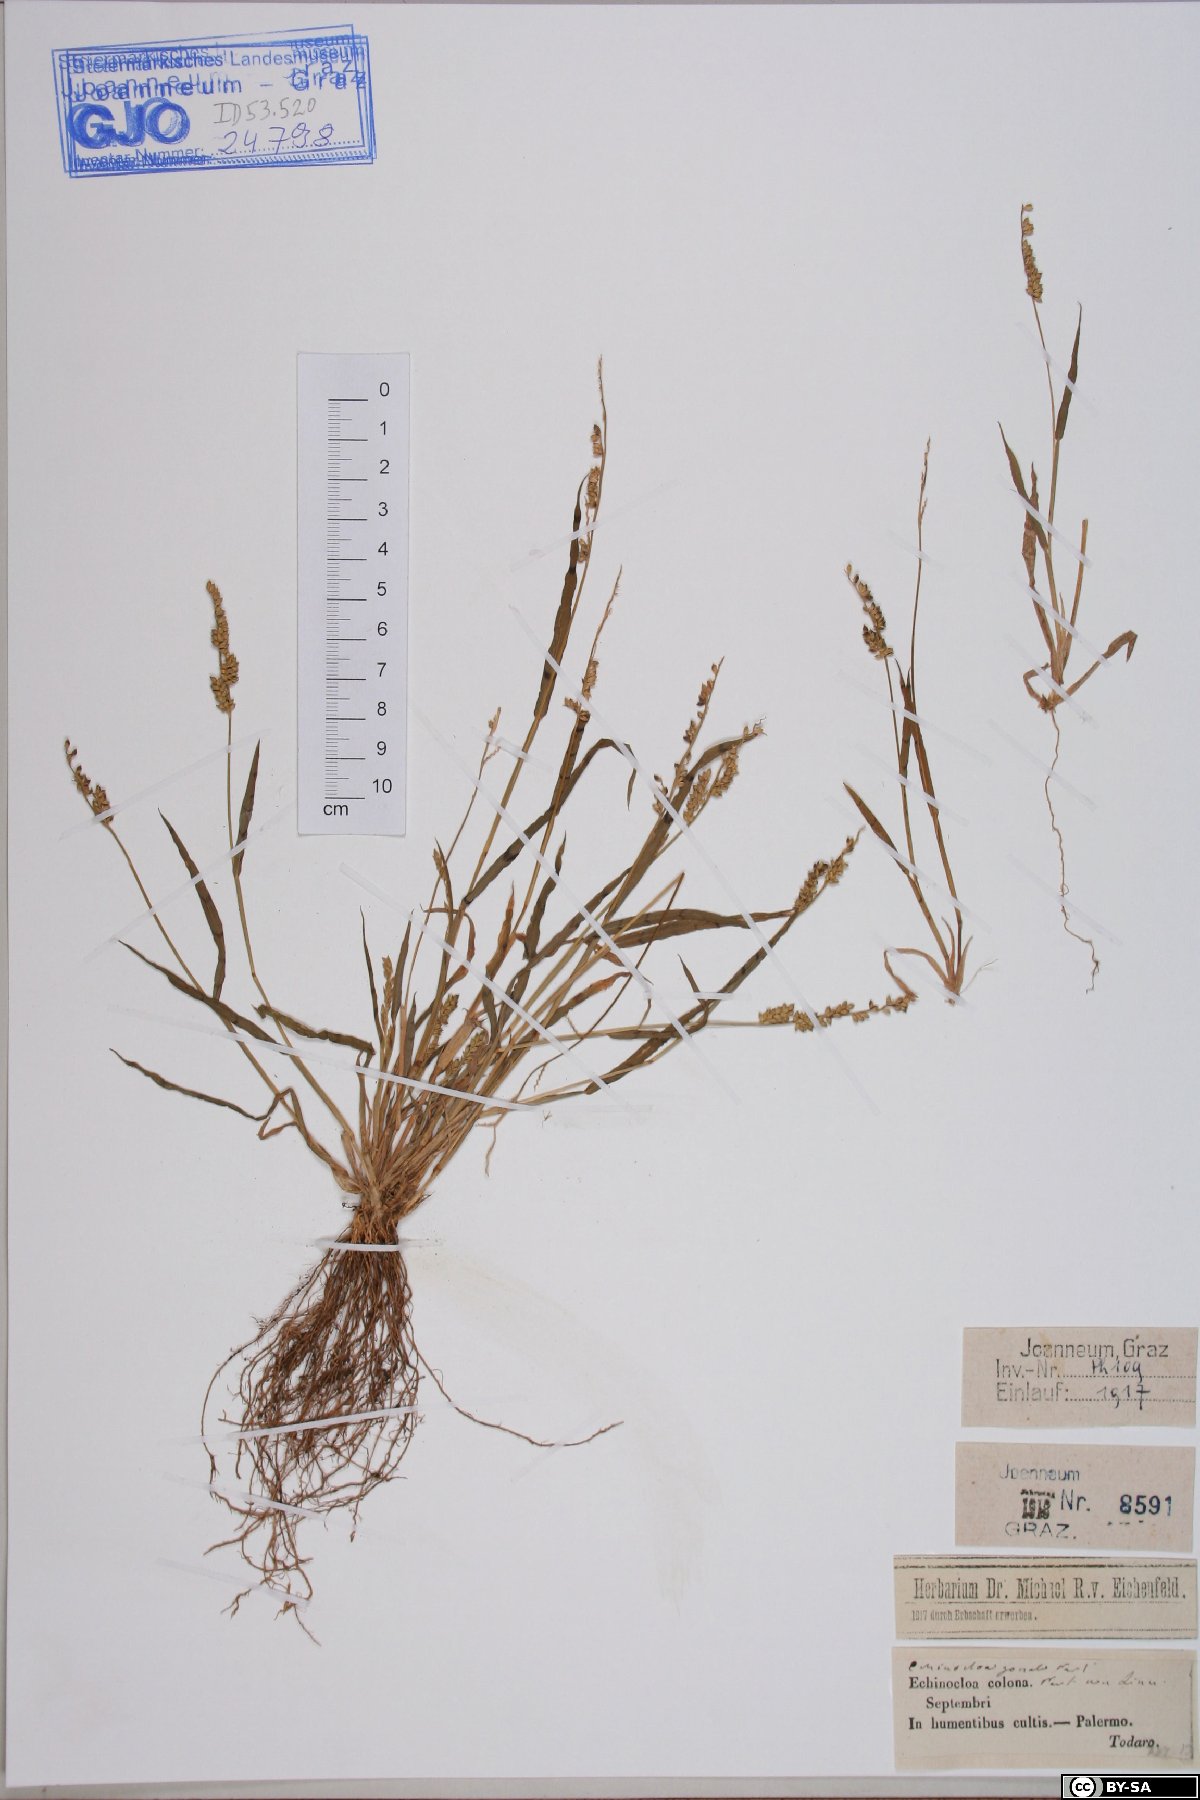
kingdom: Plantae
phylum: Tracheophyta
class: Liliopsida
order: Poales
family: Poaceae
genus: Echinochloa
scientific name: Echinochloa colonum
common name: Jungle rice
